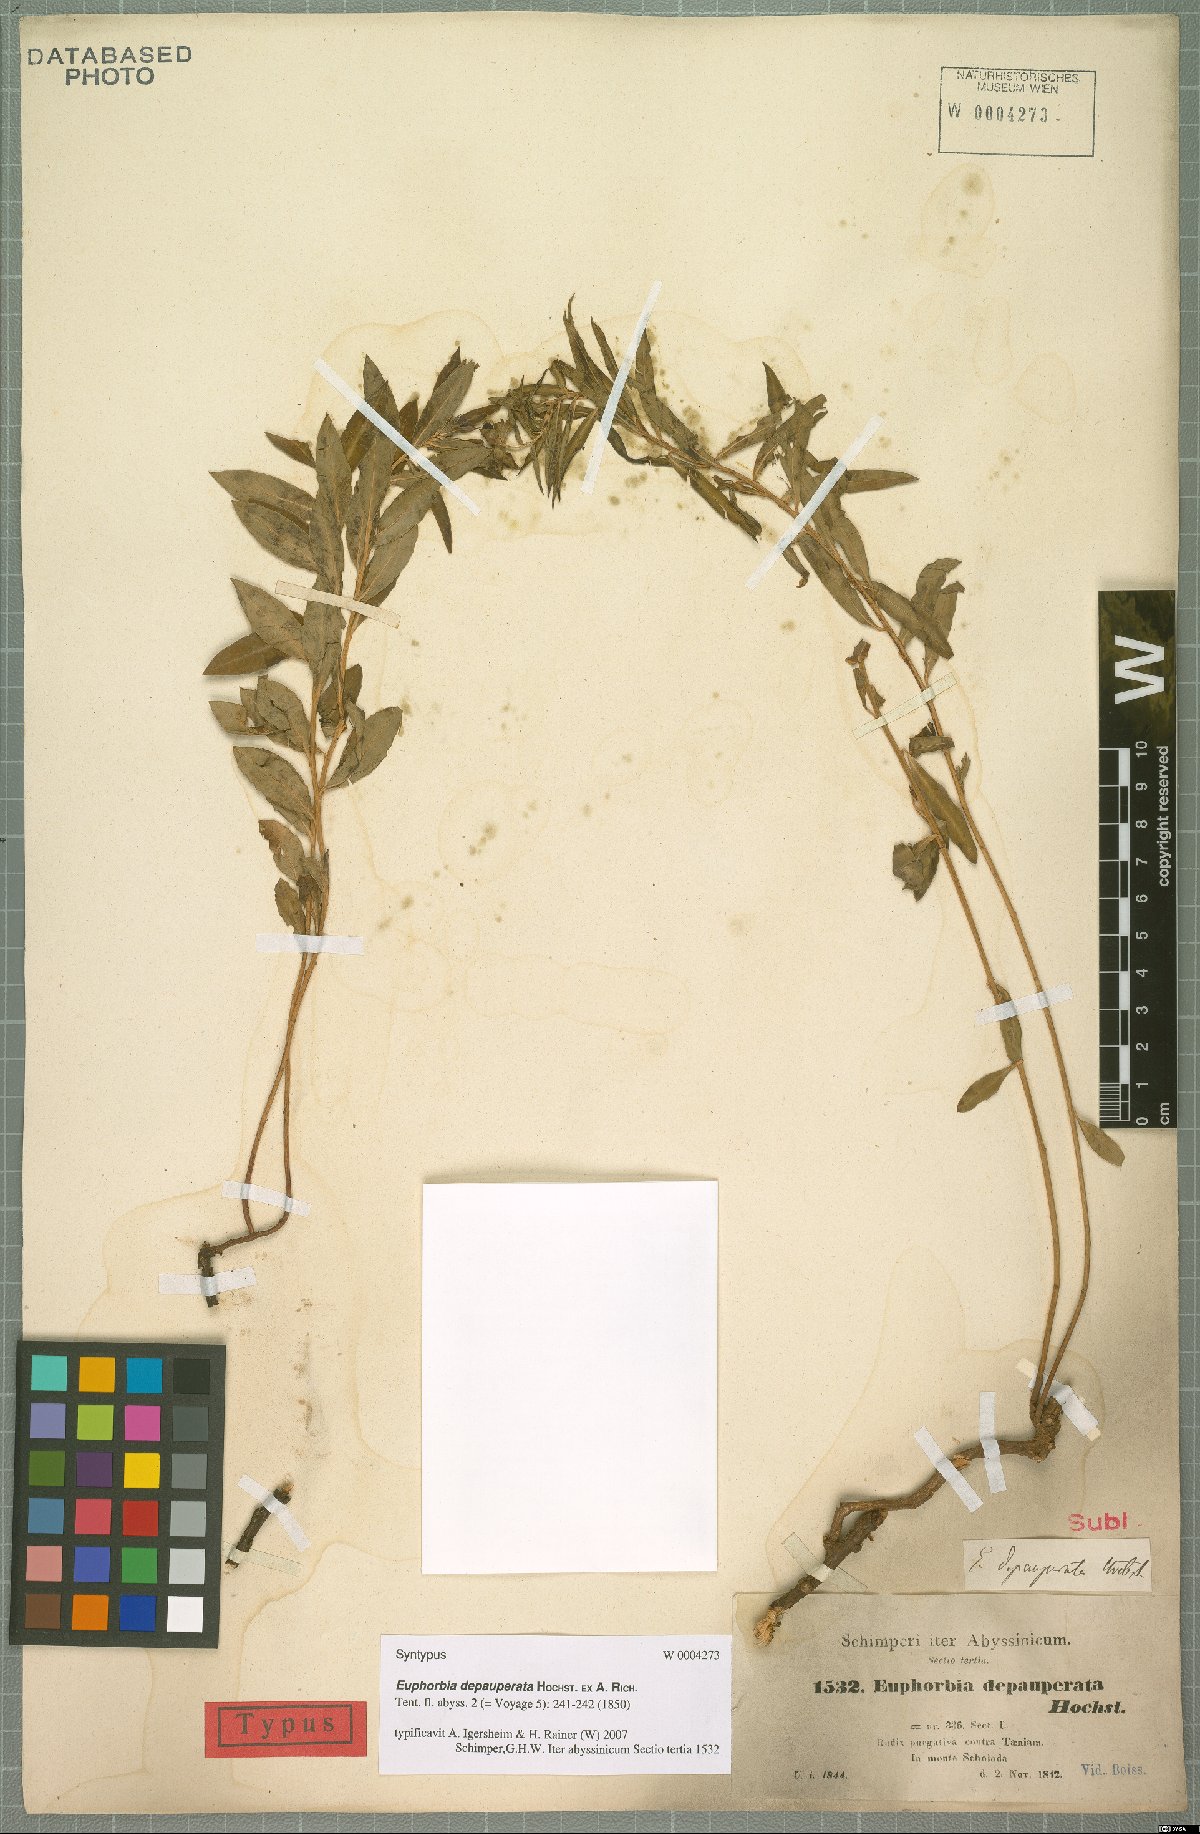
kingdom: Plantae
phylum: Tracheophyta
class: Magnoliopsida
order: Malpighiales
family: Euphorbiaceae
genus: Euphorbia
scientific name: Euphorbia depauperata
